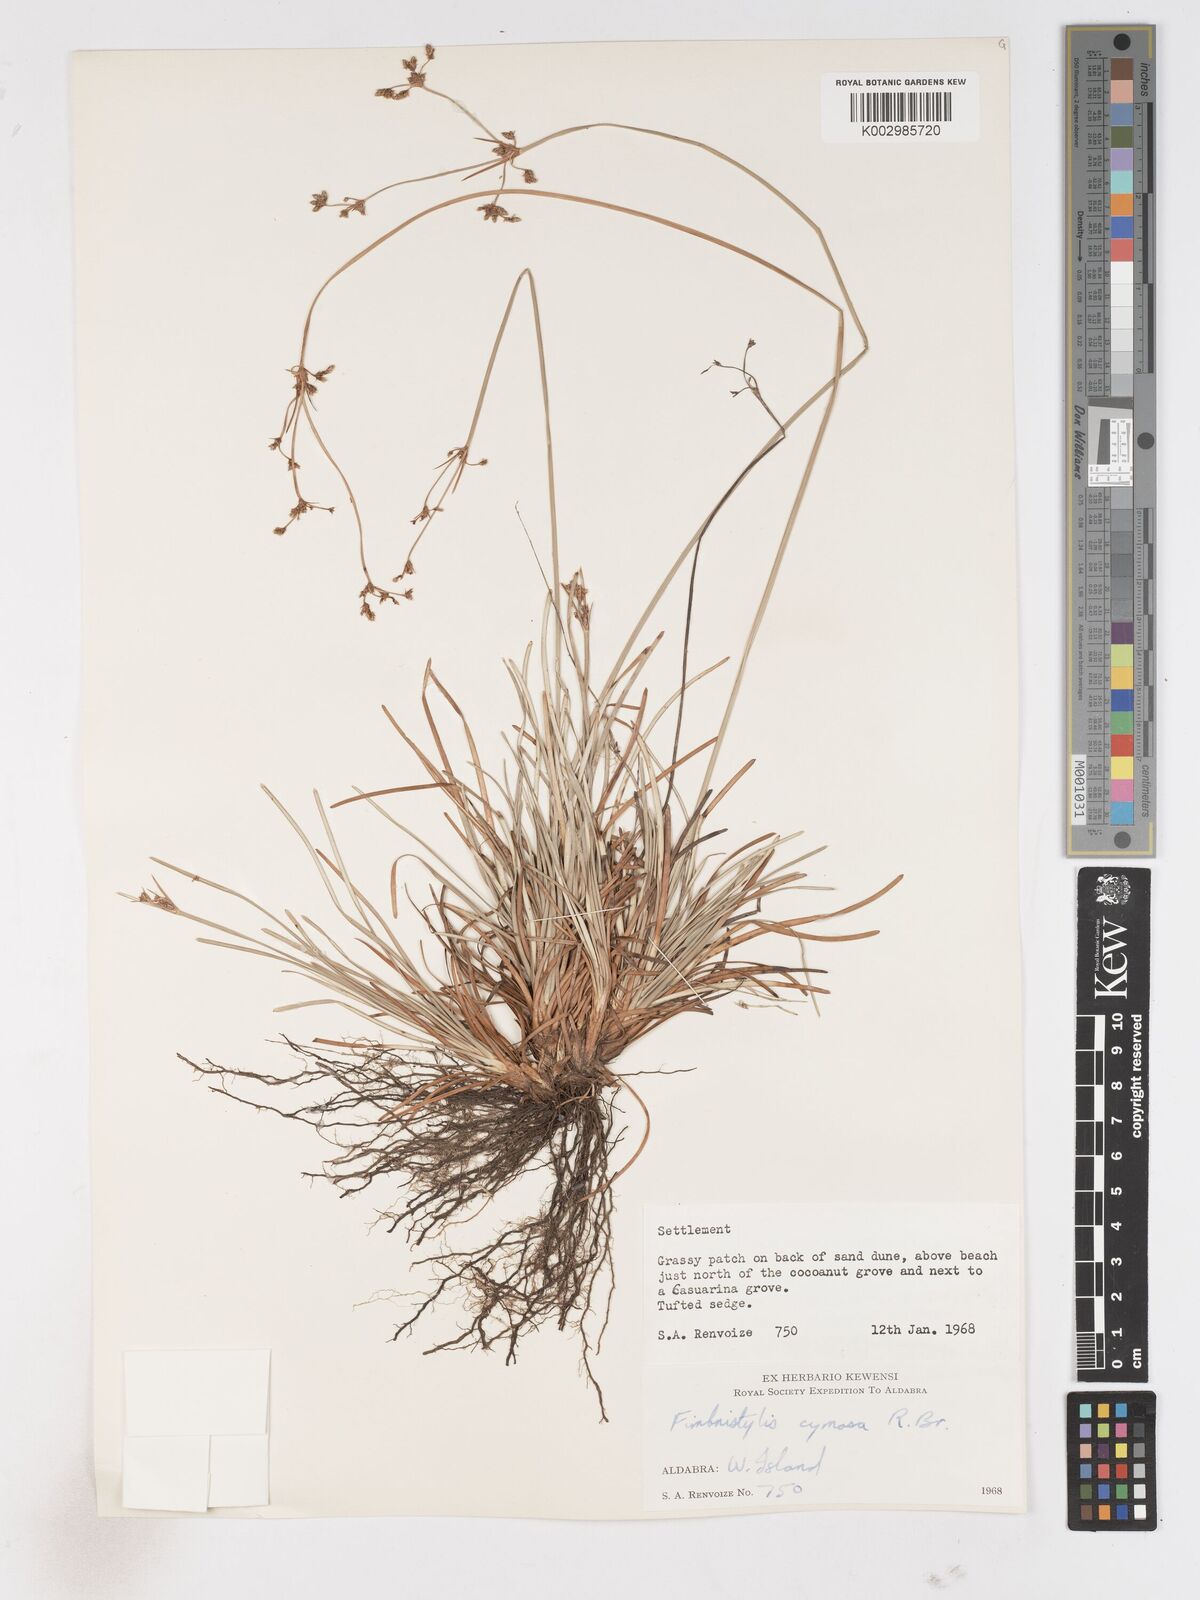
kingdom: Plantae
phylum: Tracheophyta
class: Liliopsida
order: Poales
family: Cyperaceae
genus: Fimbristylis
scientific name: Fimbristylis cymosa
